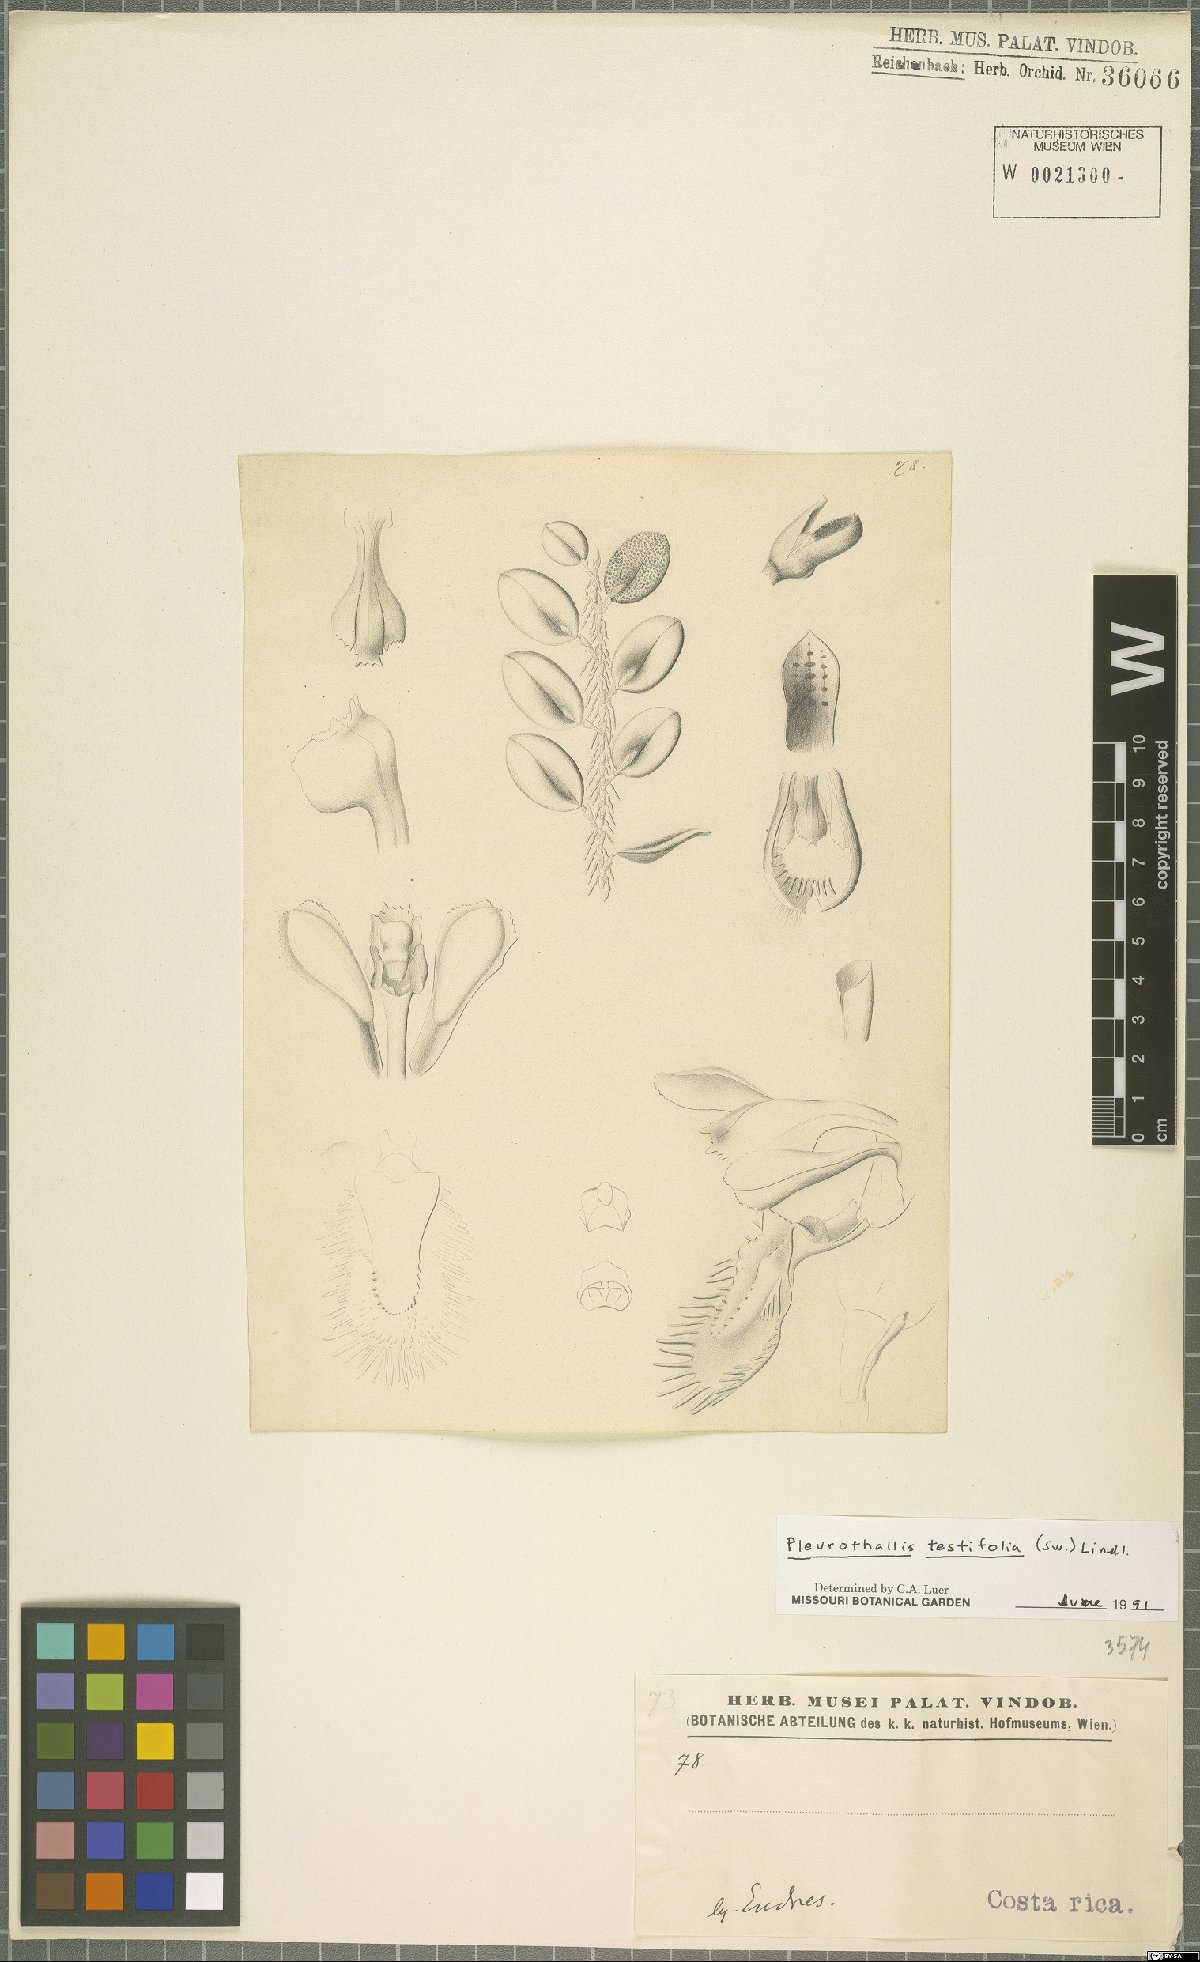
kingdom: Plantae
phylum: Tracheophyta
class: Liliopsida
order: Asparagales
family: Orchidaceae
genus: Acianthera
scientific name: Acianthera testifolia
